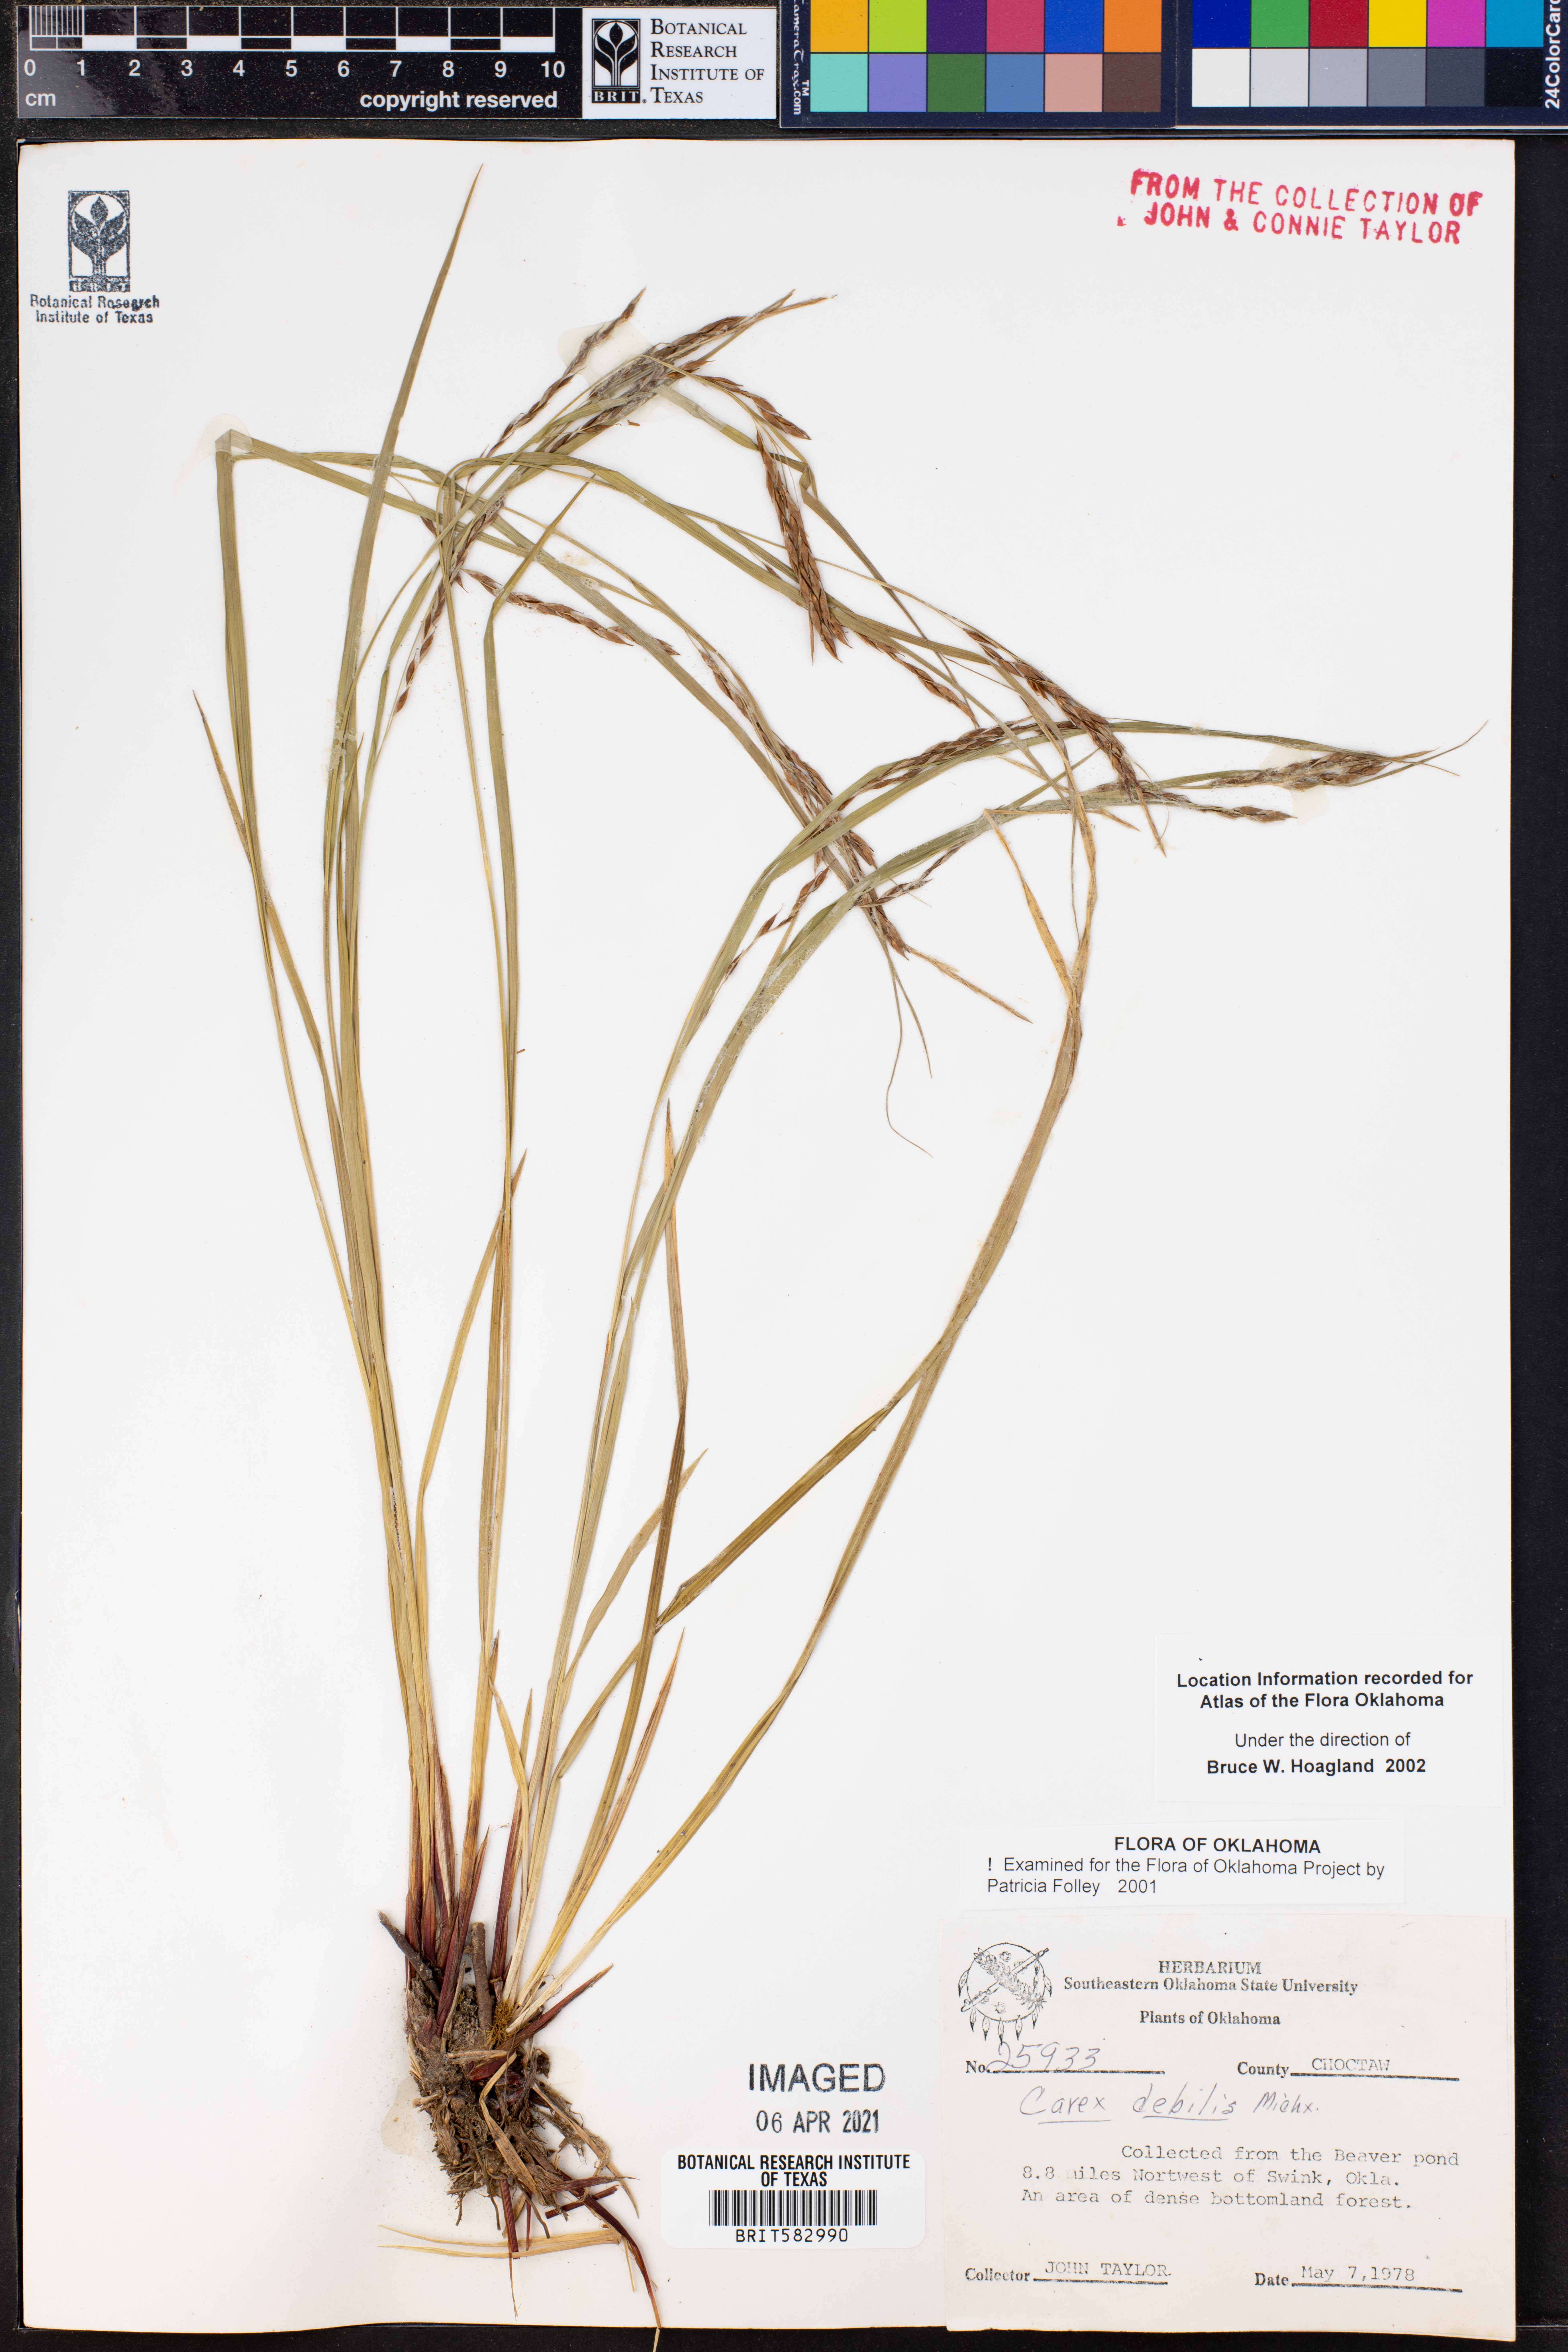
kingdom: Plantae
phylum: Tracheophyta
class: Liliopsida
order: Poales
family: Cyperaceae
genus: Carex
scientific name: Carex mendocinensis
